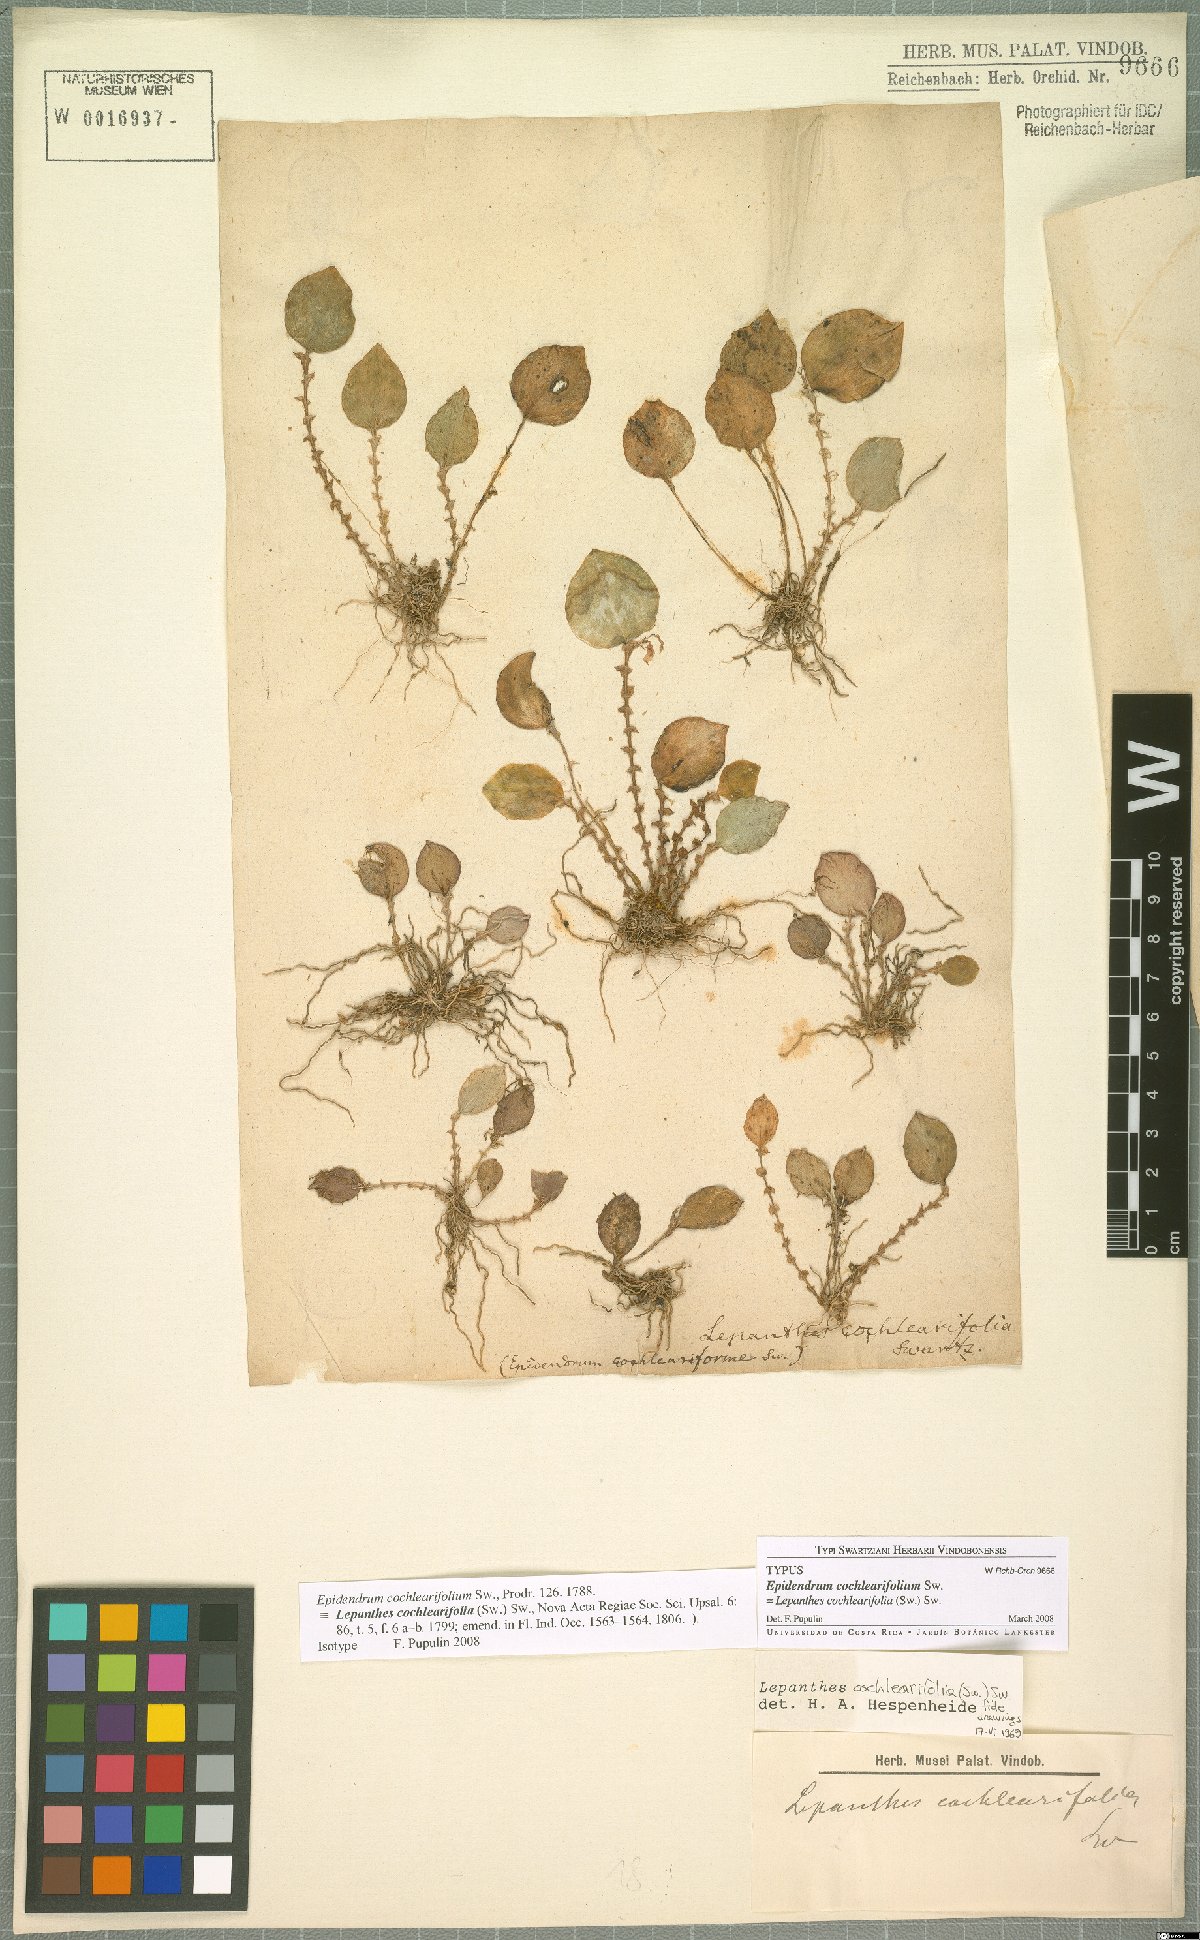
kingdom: Plantae
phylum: Tracheophyta
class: Liliopsida
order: Asparagales
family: Orchidaceae
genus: Lepanthes
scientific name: Lepanthes cochleariifolia
